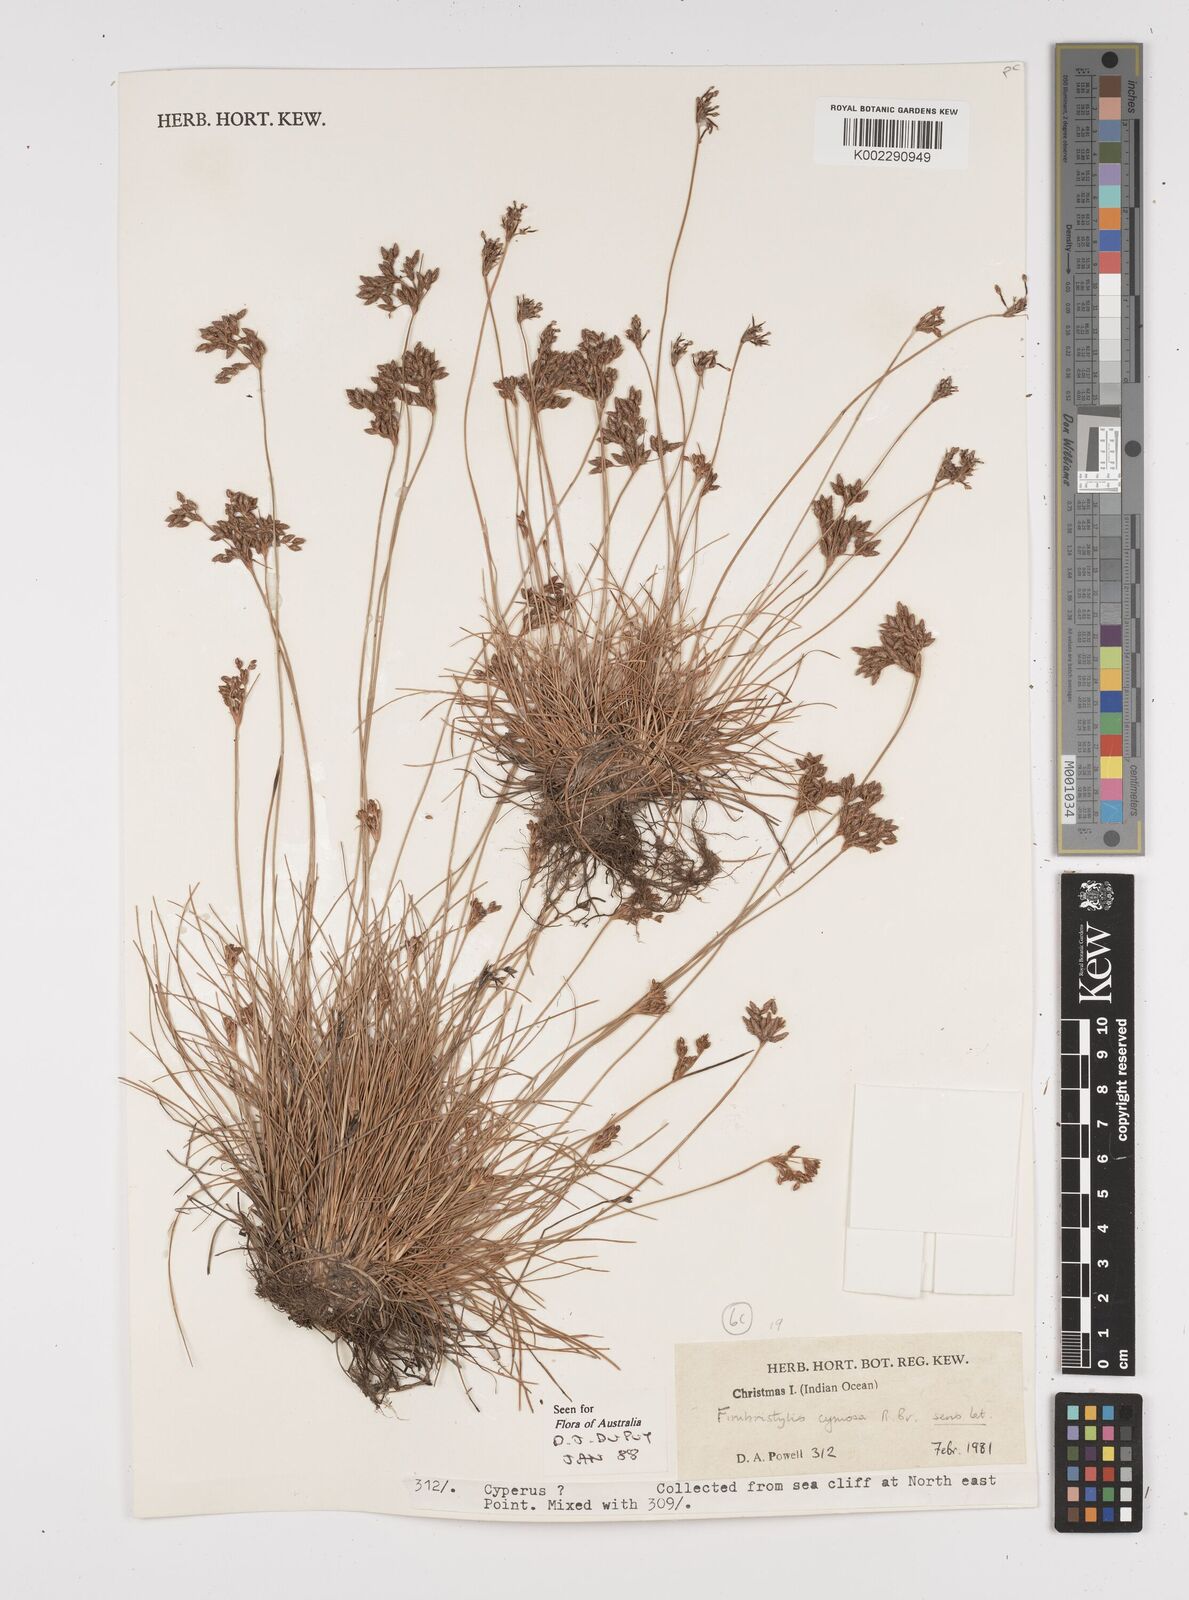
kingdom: Plantae
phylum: Tracheophyta
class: Liliopsida
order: Poales
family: Cyperaceae
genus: Fimbristylis
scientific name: Fimbristylis cymosa
